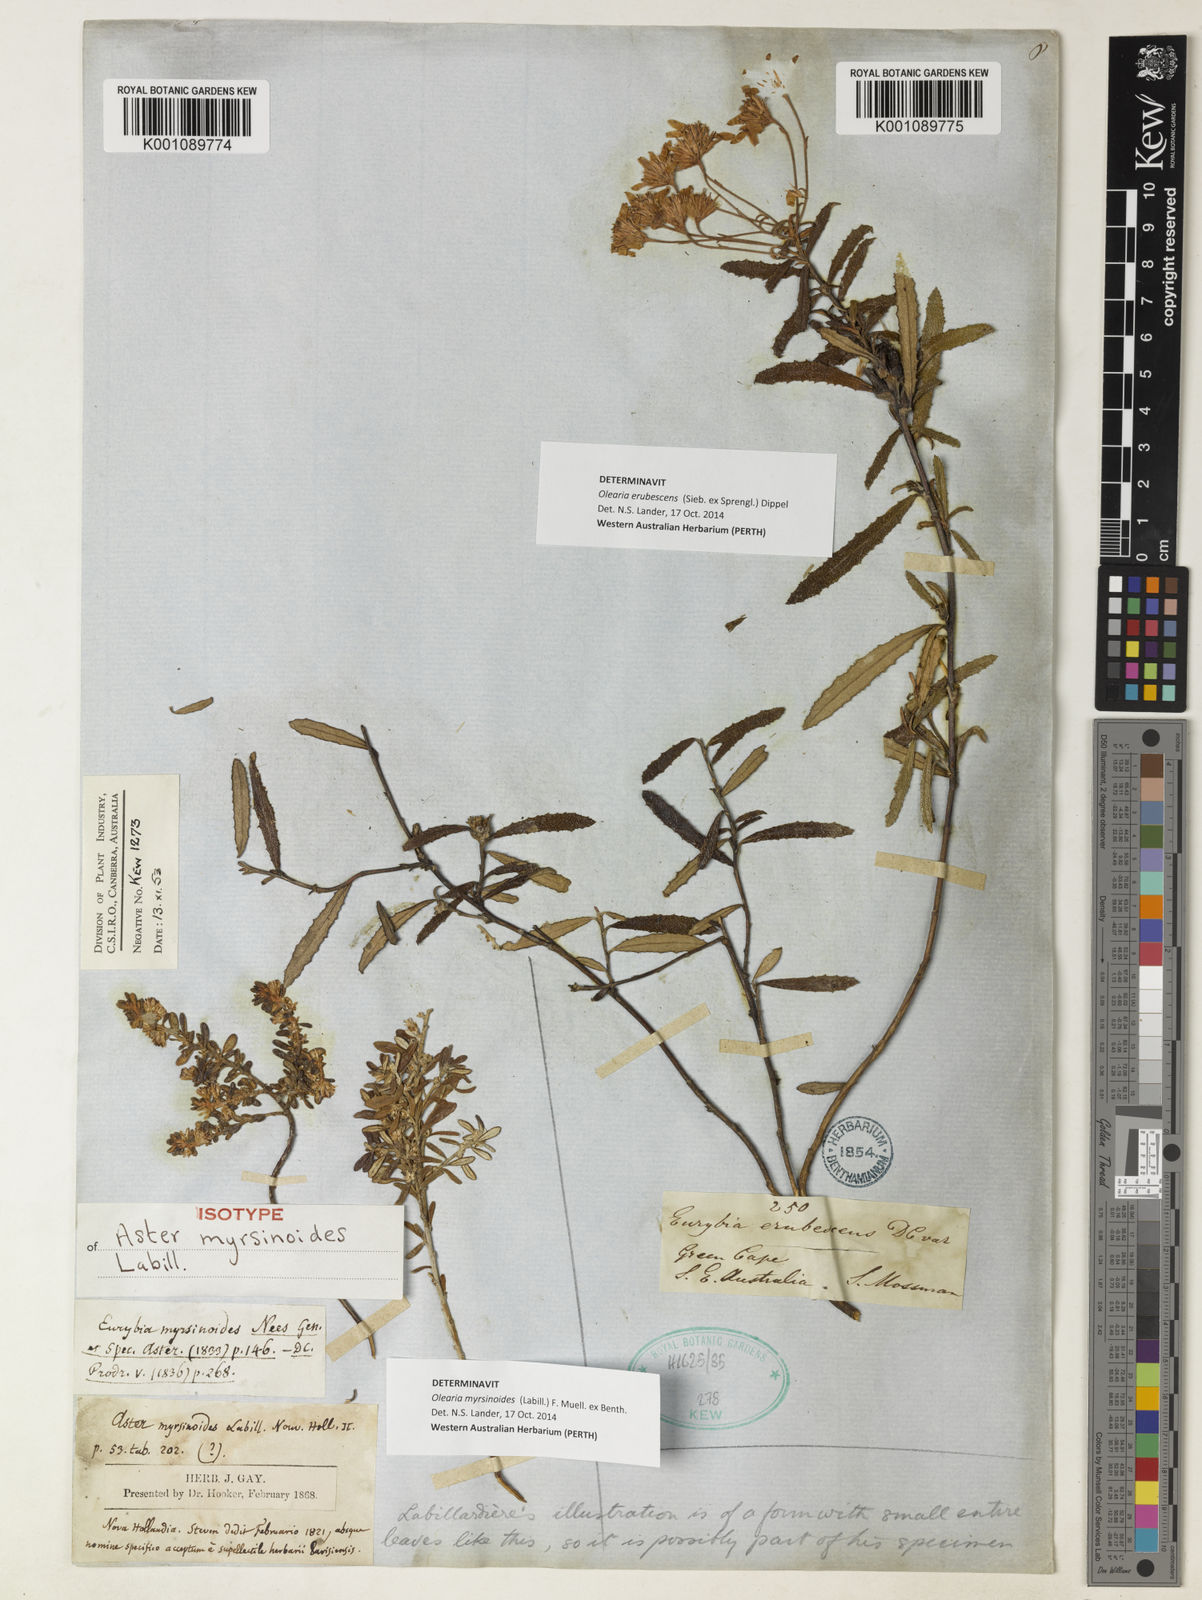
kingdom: Plantae
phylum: Tracheophyta
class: Magnoliopsida
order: Asterales
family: Asteraceae
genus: Olearia
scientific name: Olearia myrsinoides
